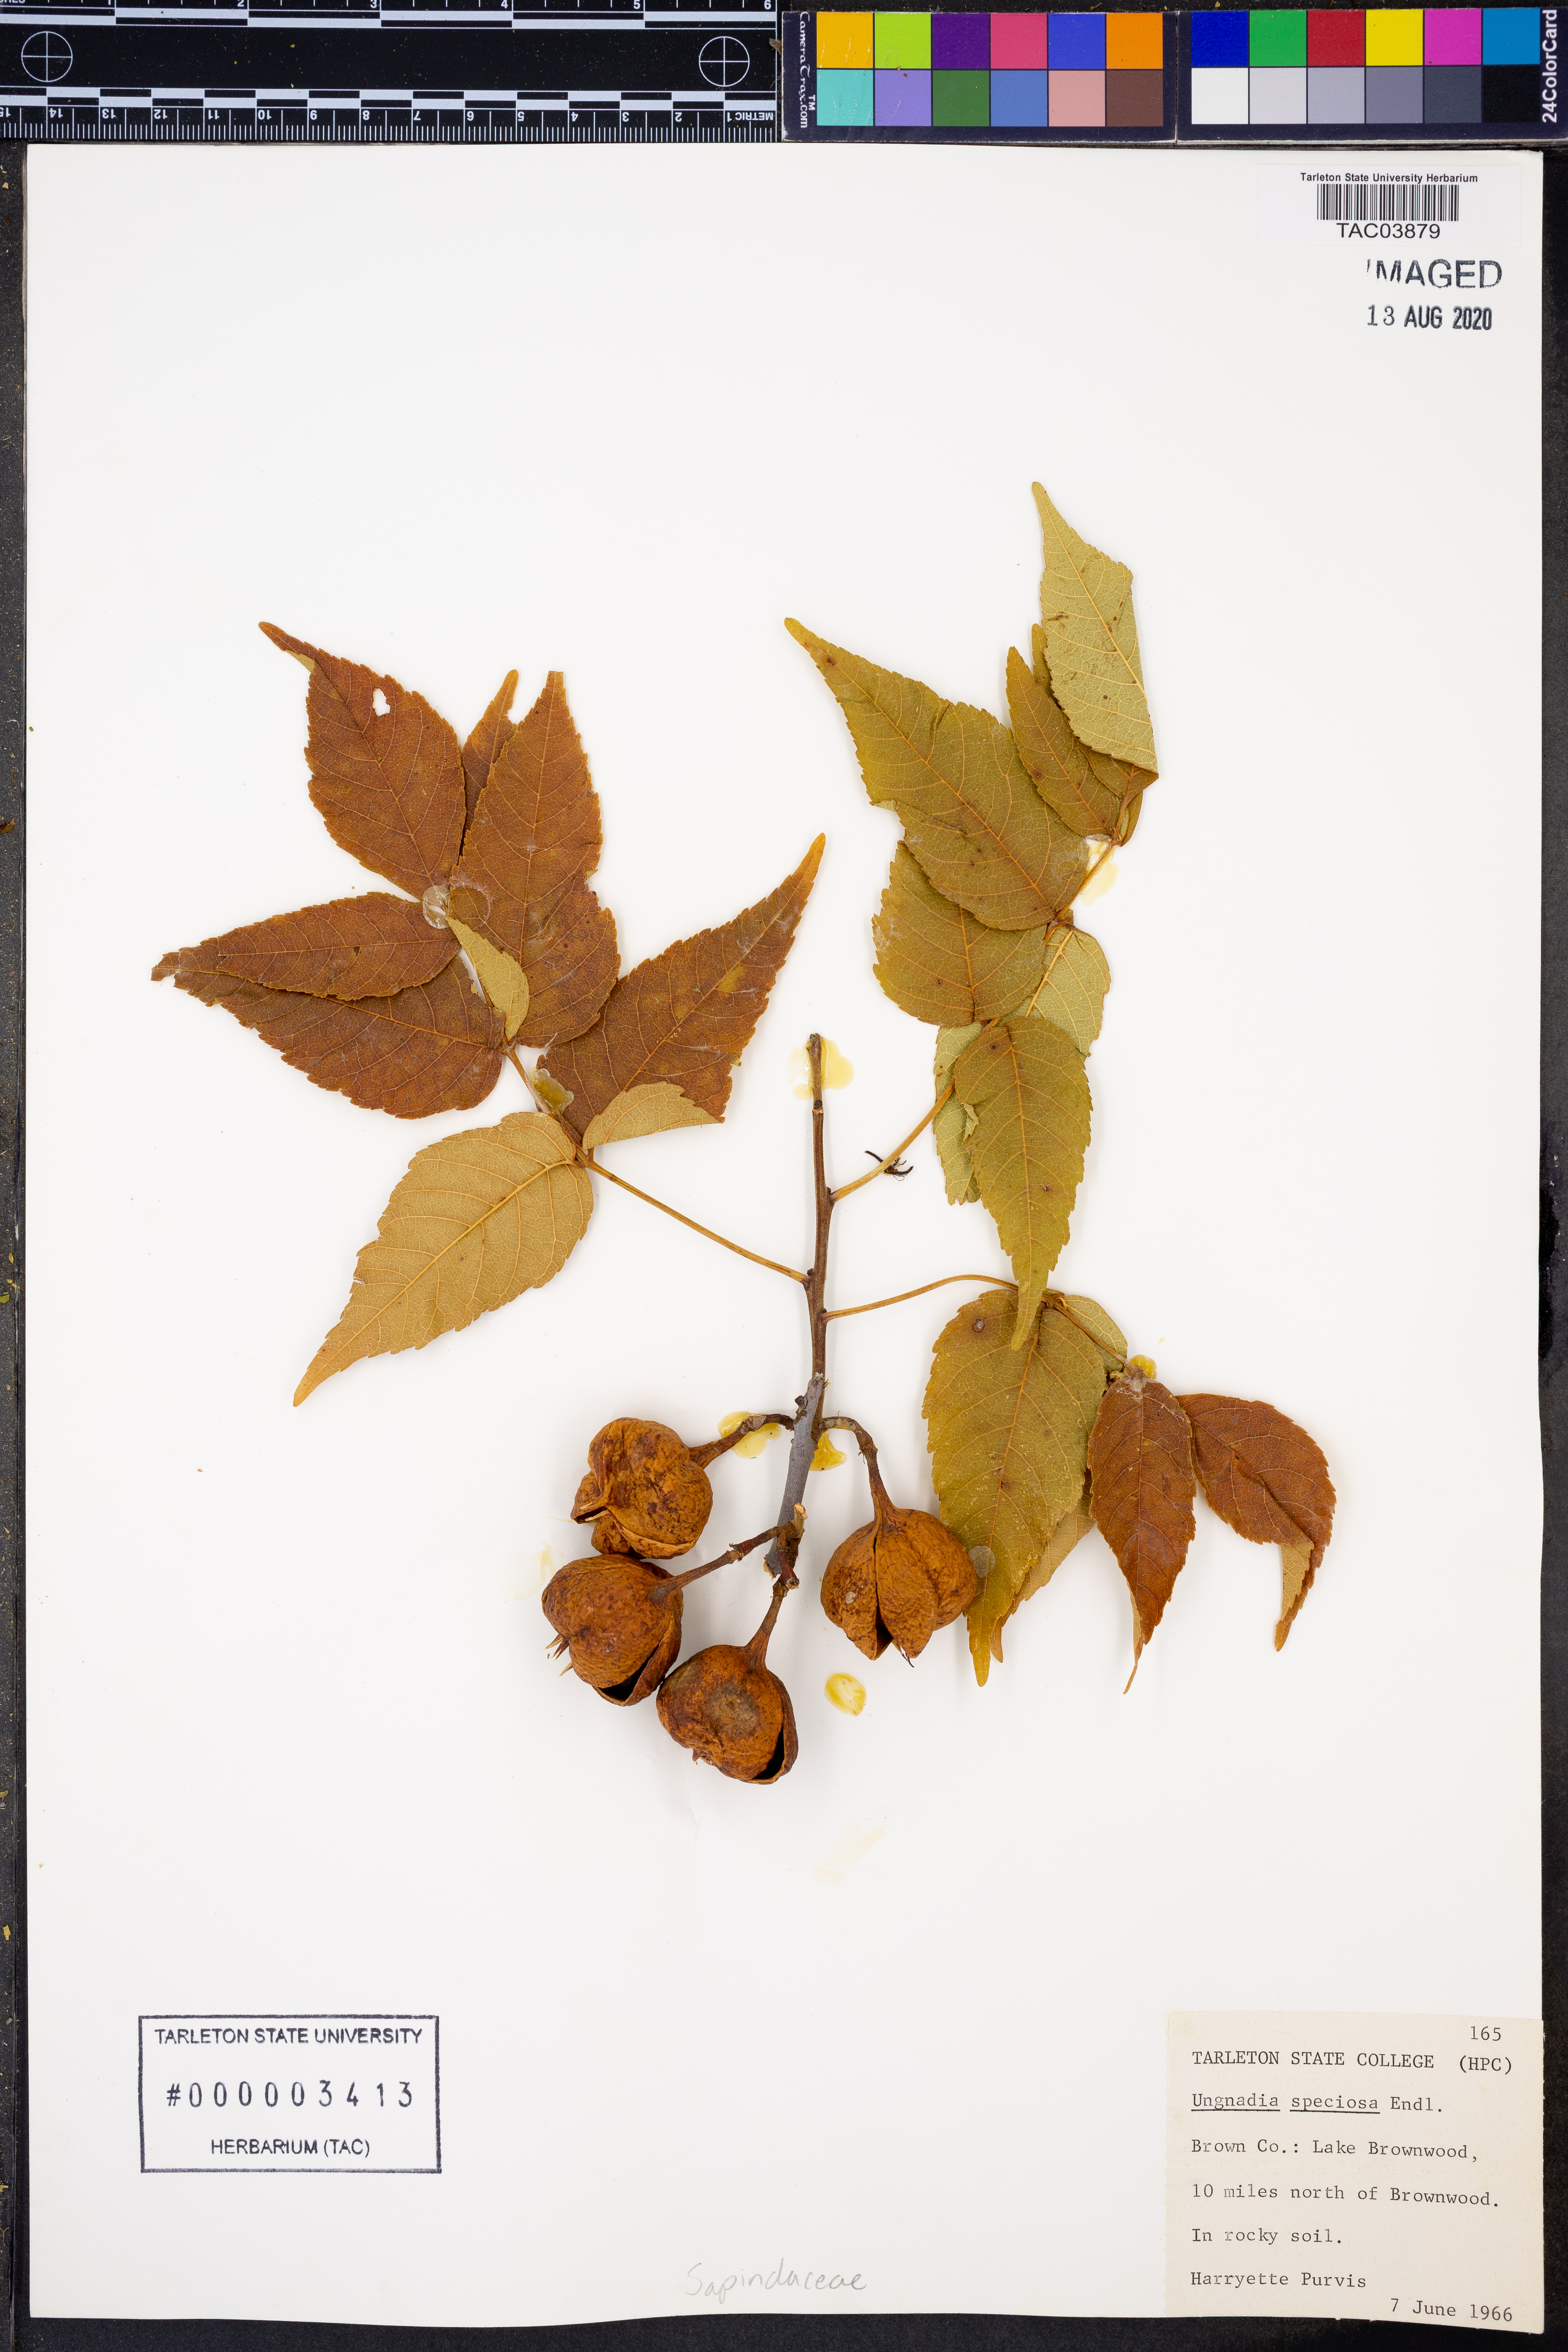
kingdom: Plantae
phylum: Tracheophyta
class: Magnoliopsida
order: Sapindales
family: Sapindaceae
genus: Ungnadia
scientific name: Ungnadia speciosa
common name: Texas-buckeye
